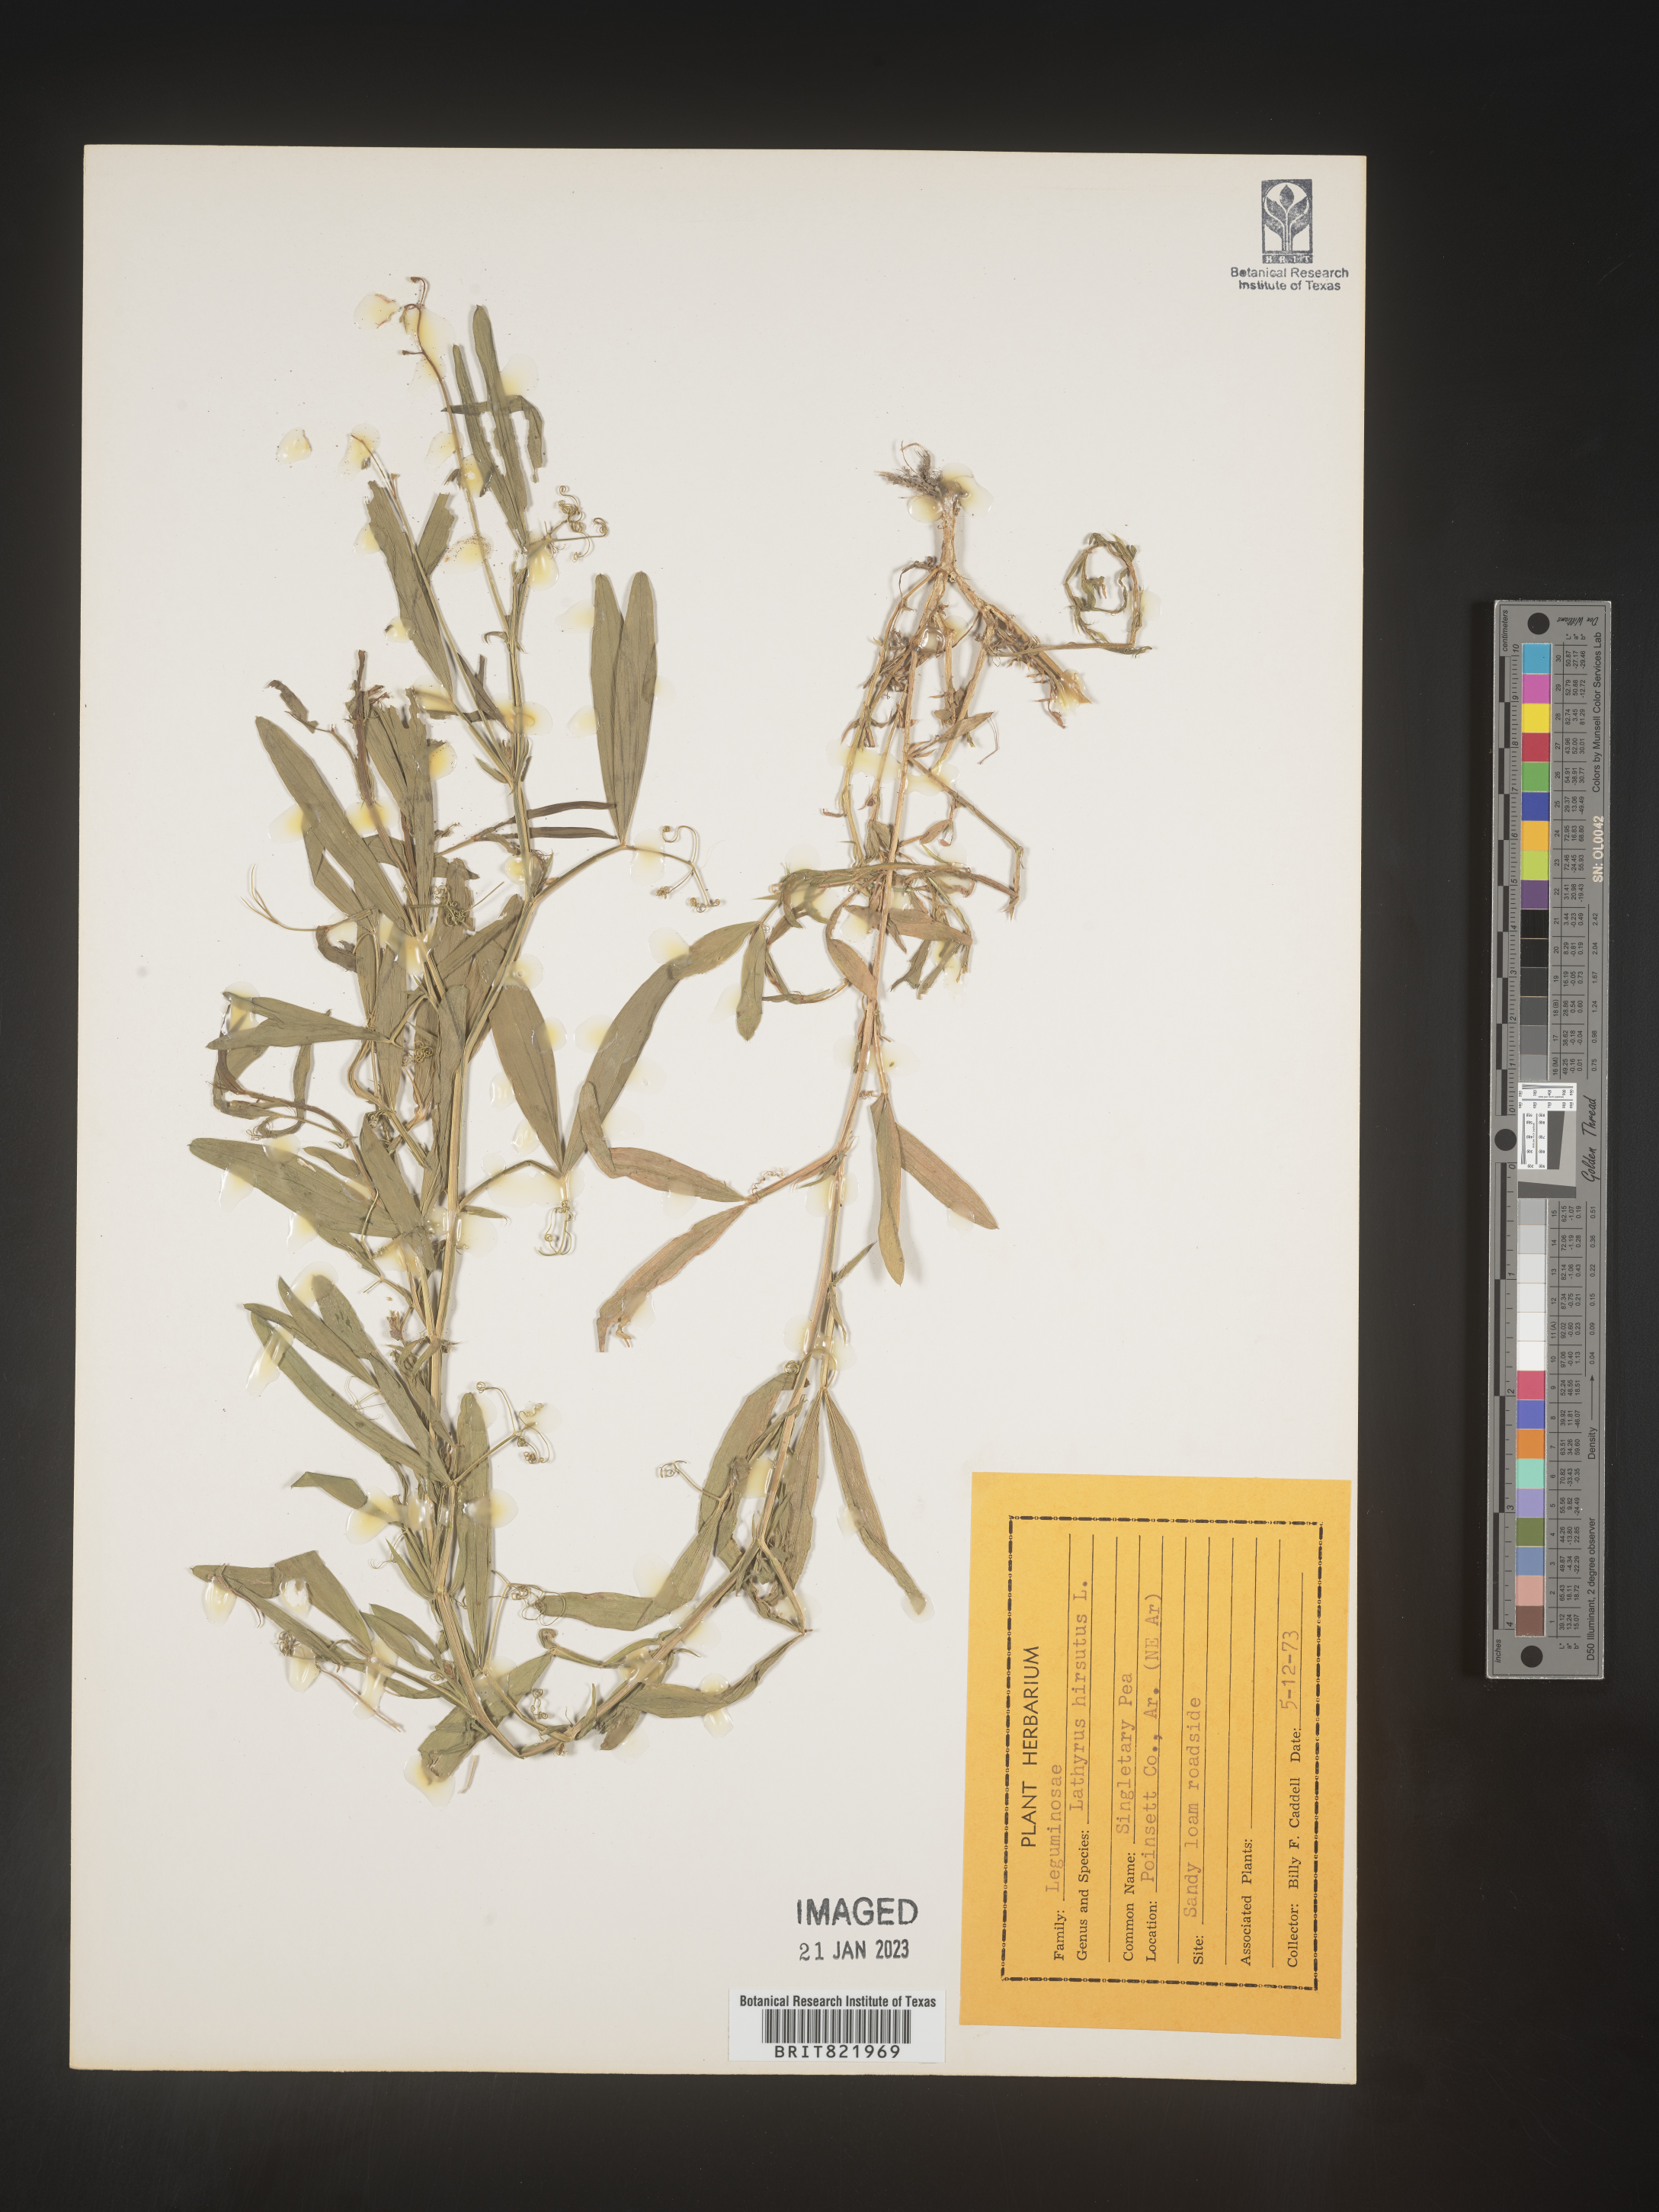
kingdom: Plantae
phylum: Tracheophyta
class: Magnoliopsida
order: Fabales
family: Fabaceae
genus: Lathyrus
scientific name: Lathyrus hirsutus
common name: Hairy vetchling
